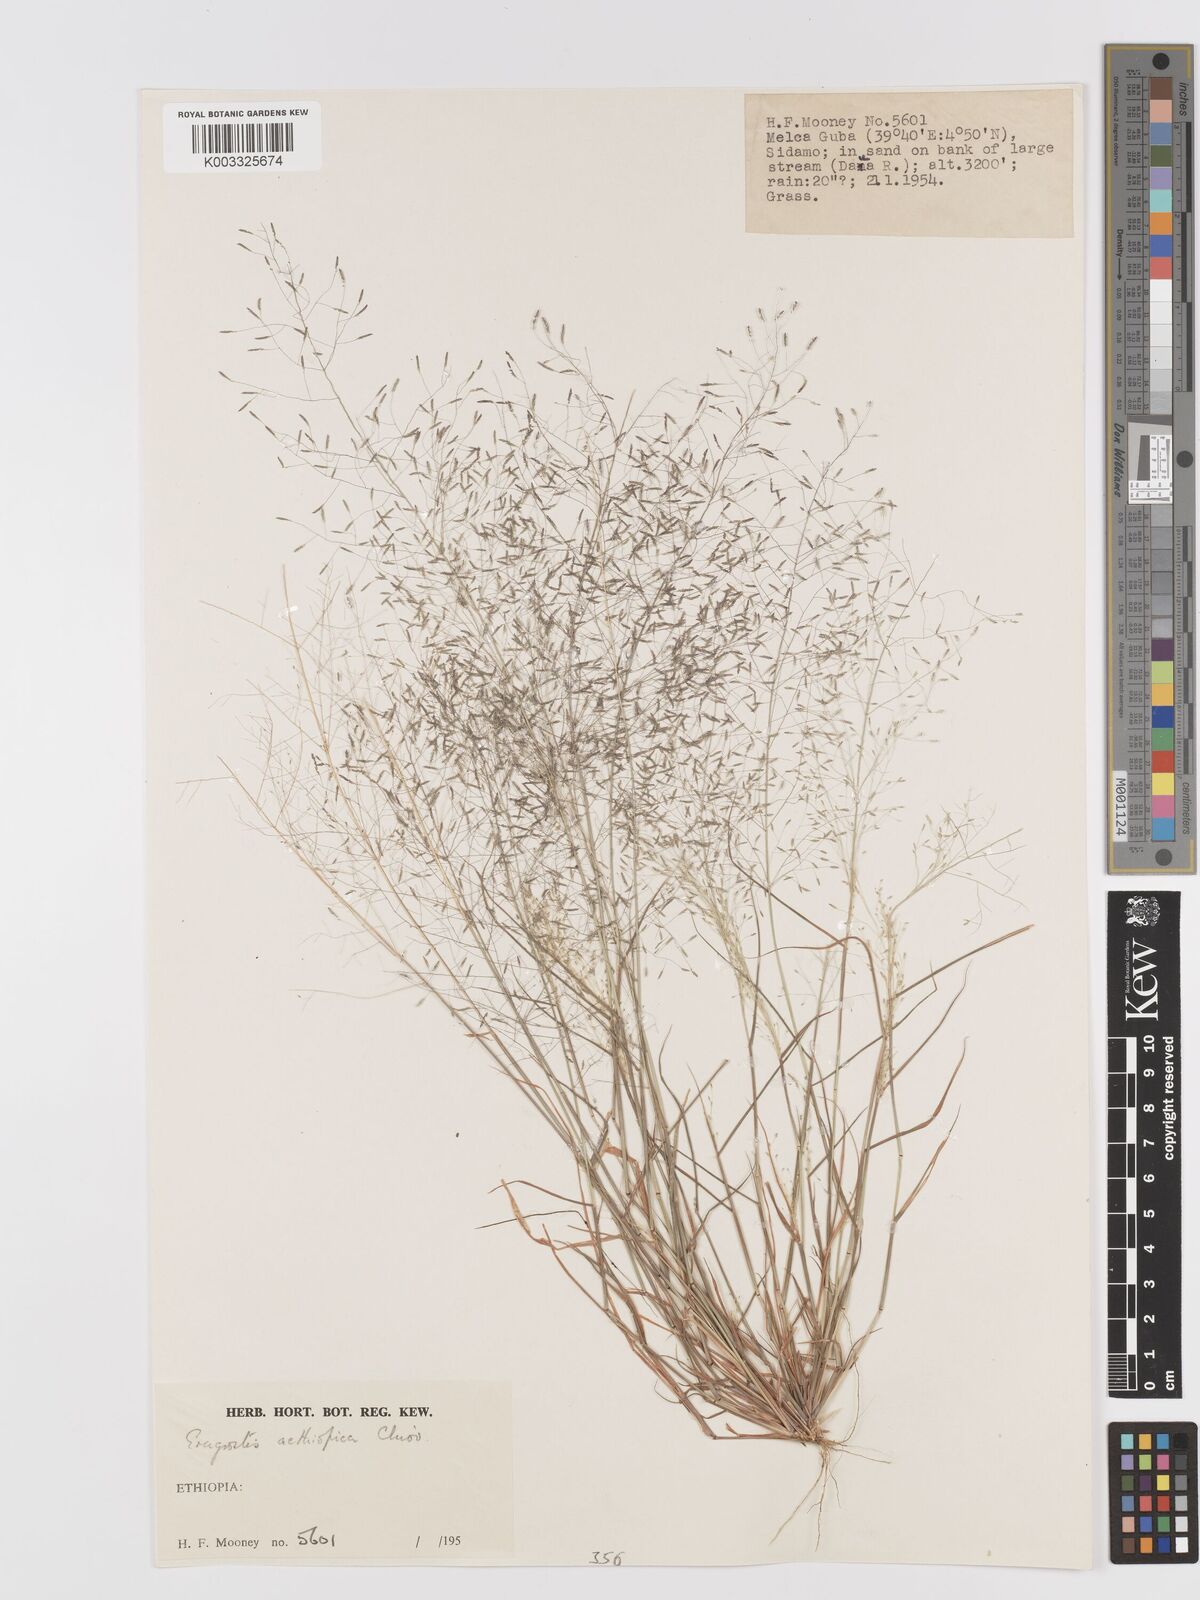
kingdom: Plantae
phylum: Tracheophyta
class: Liliopsida
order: Poales
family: Poaceae
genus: Eragrostis
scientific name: Eragrostis aethiopica
